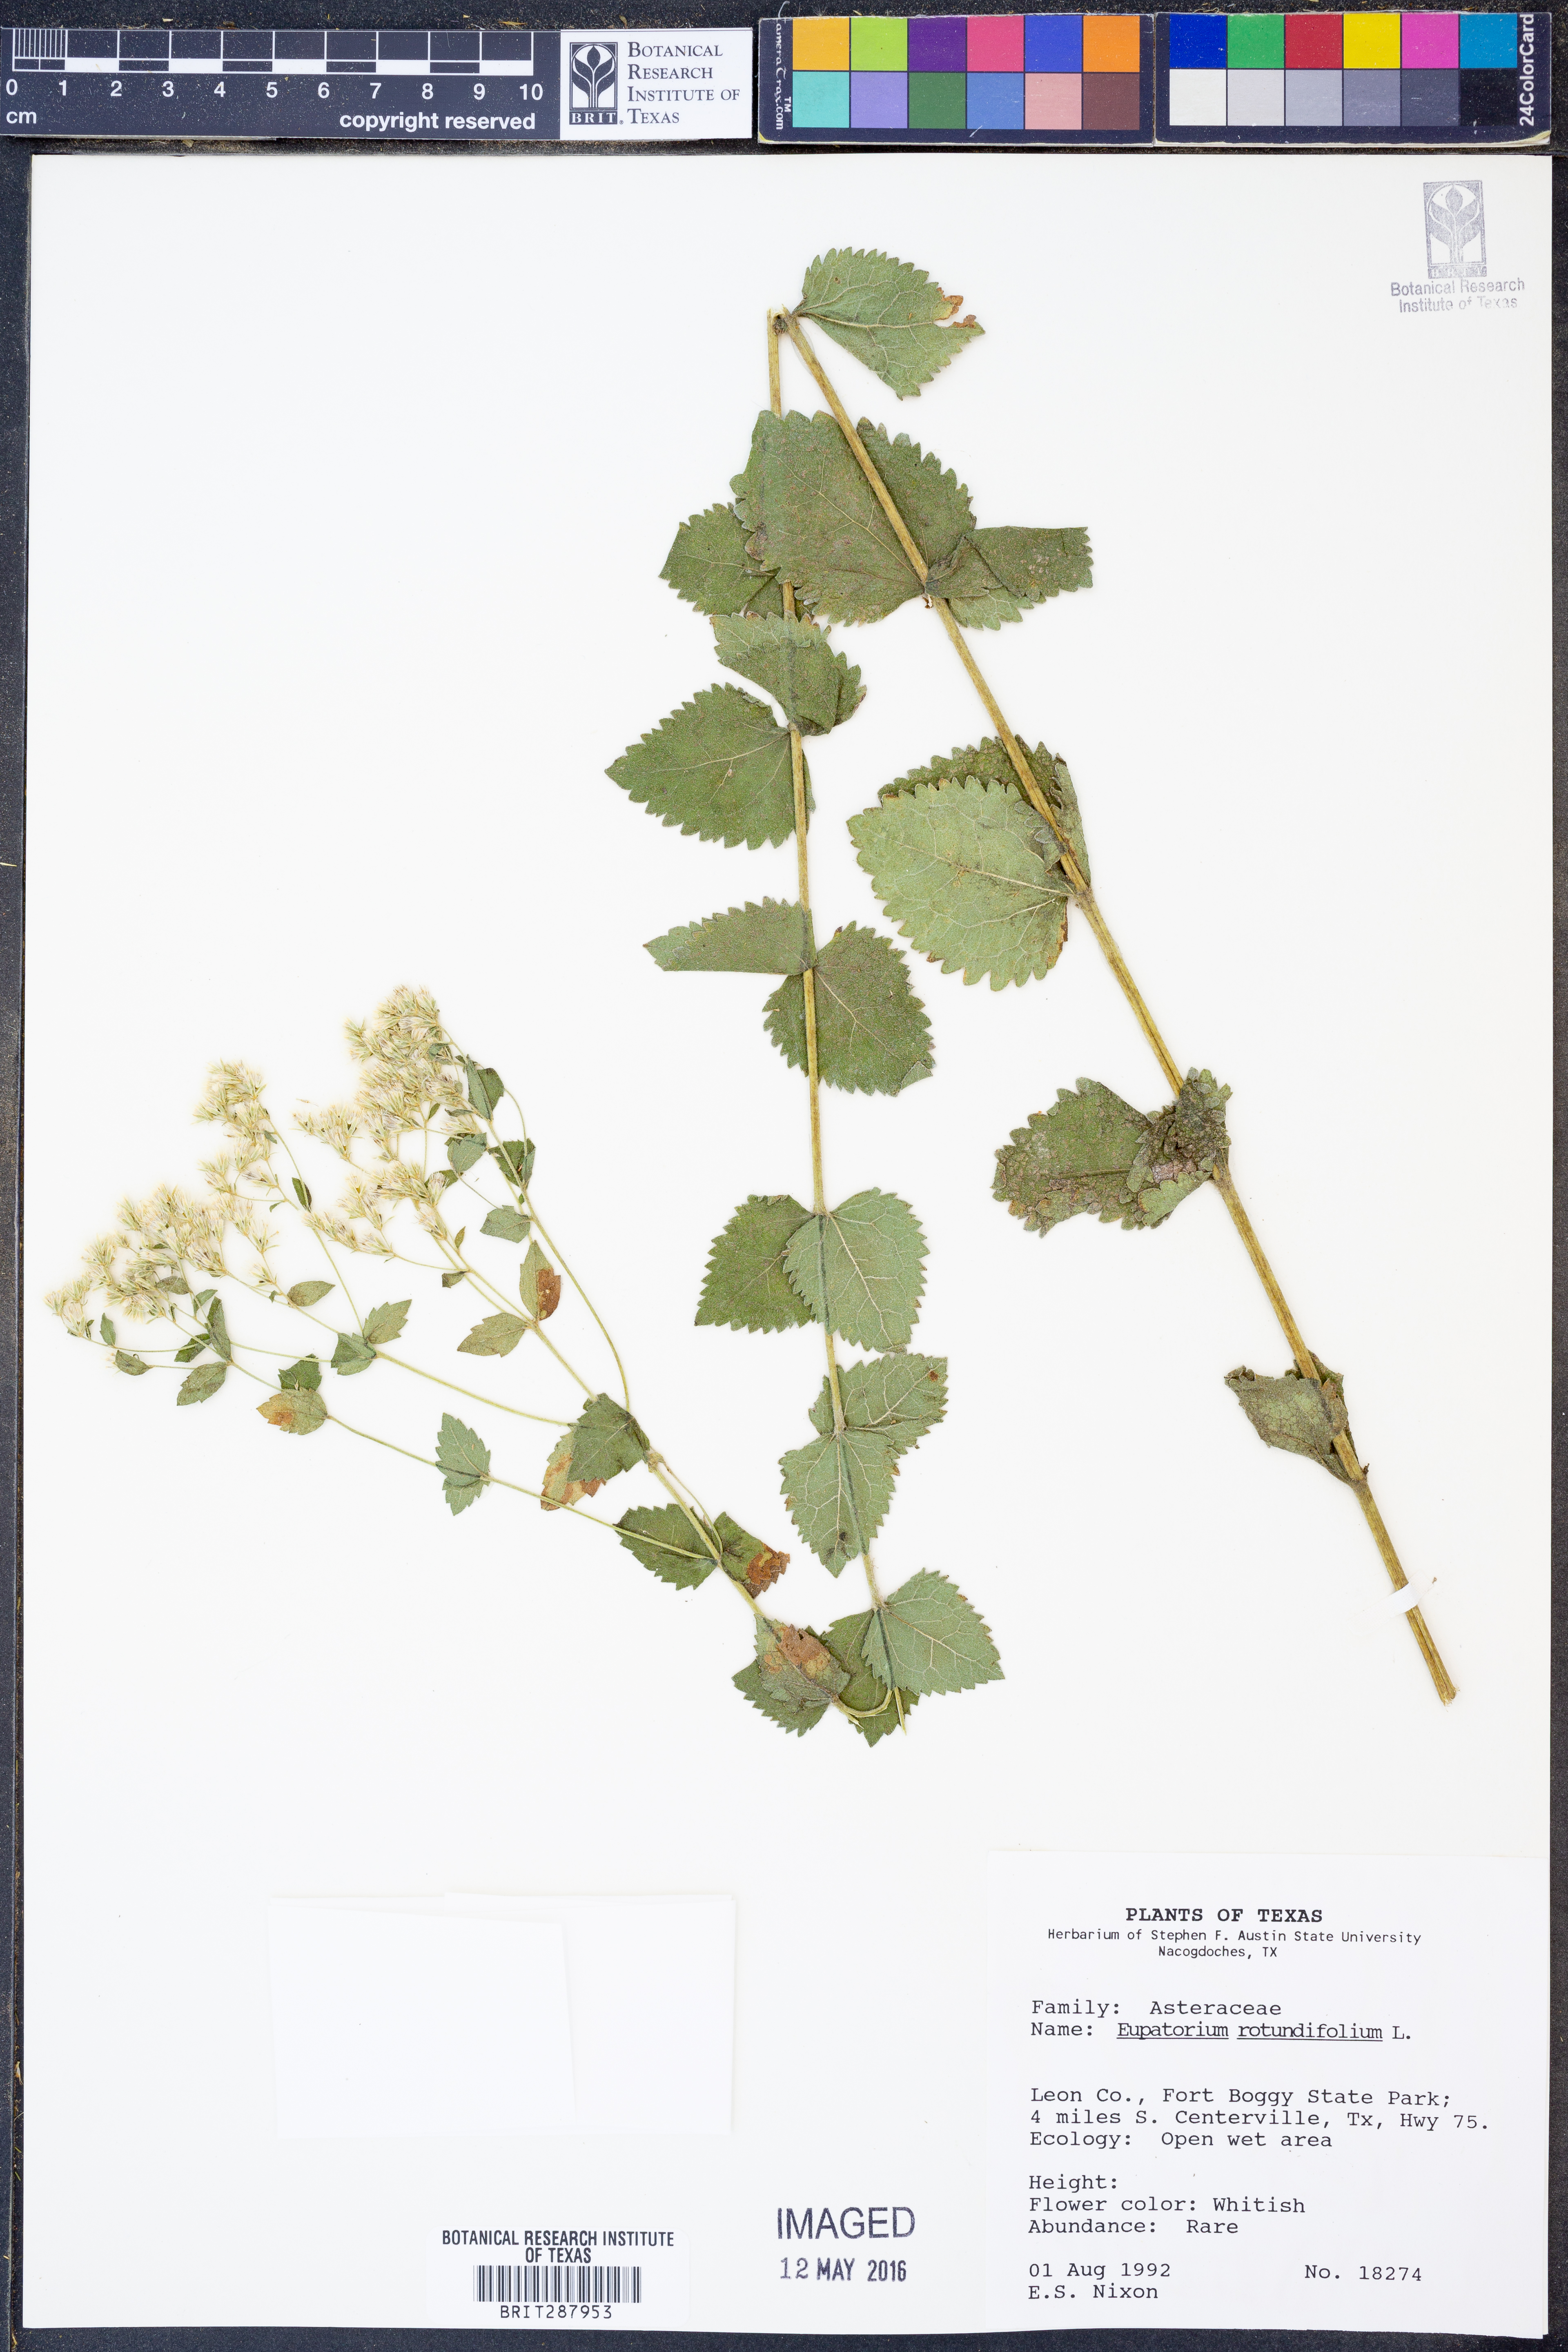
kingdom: Plantae
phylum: Tracheophyta
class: Magnoliopsida
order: Asterales
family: Asteraceae
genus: Eupatorium
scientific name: Eupatorium rotundifolium
